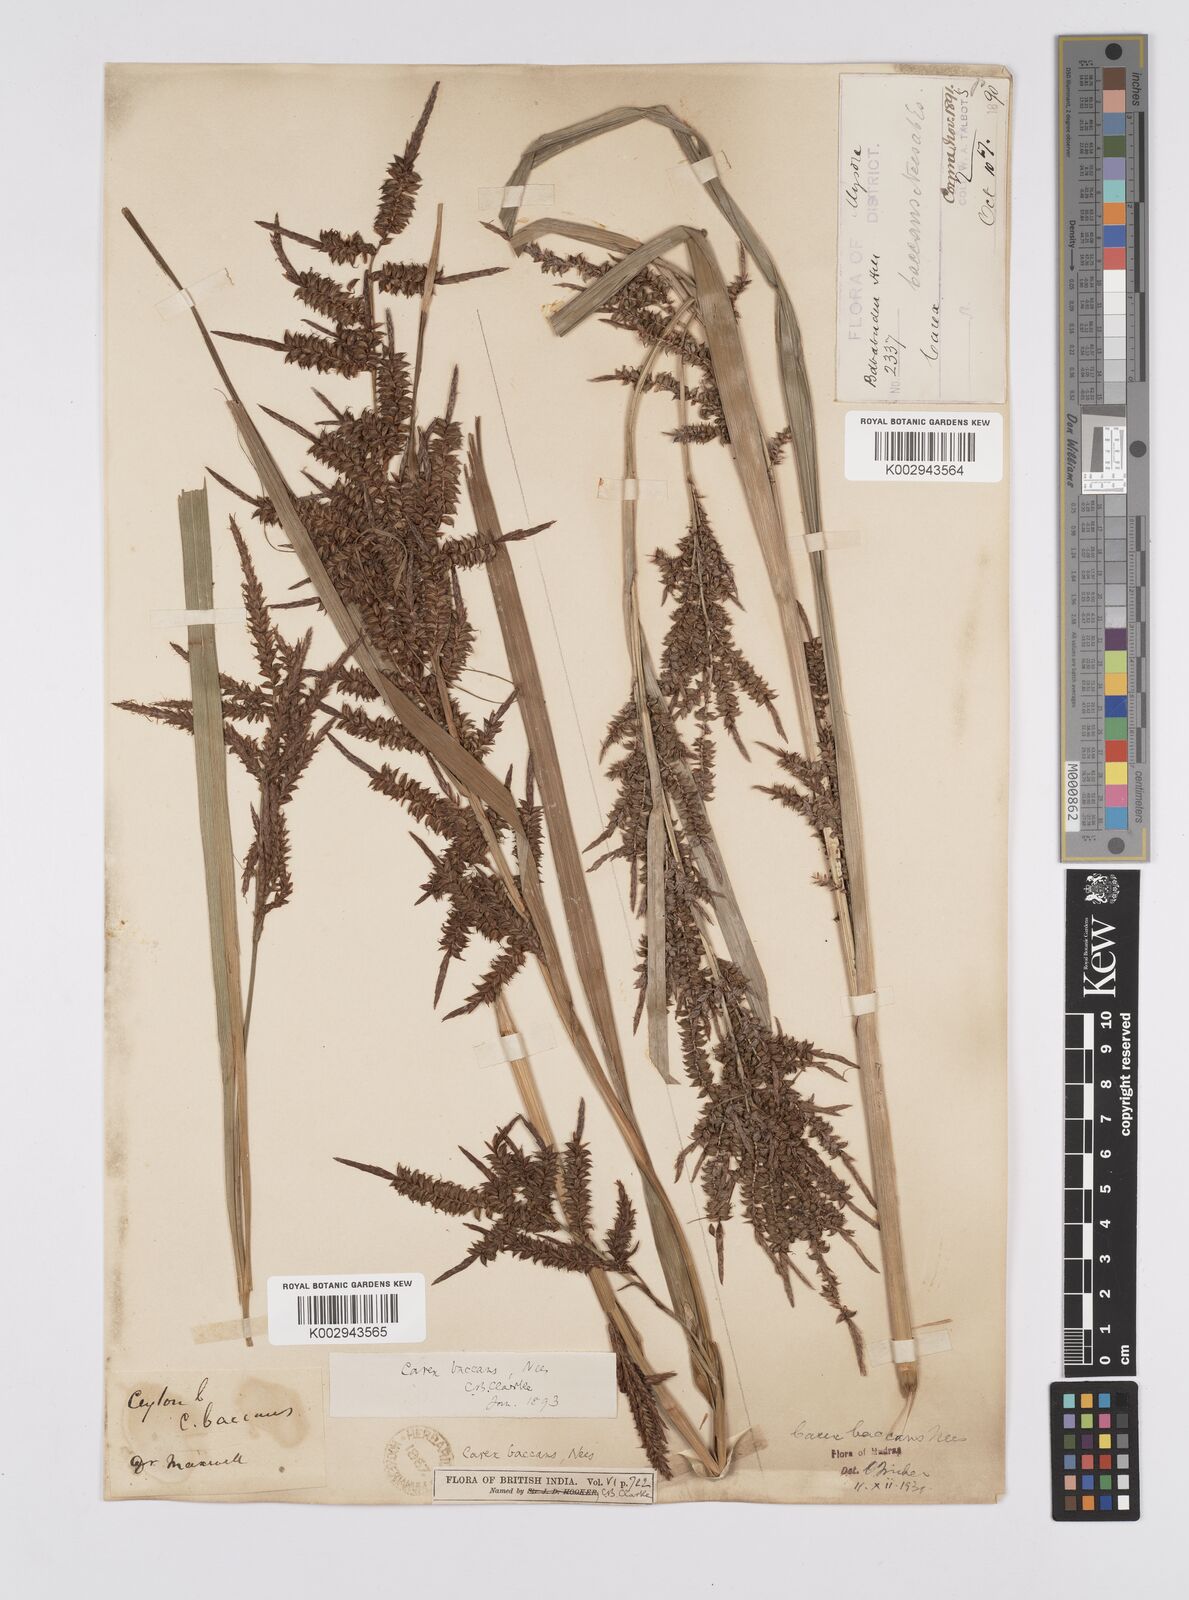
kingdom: Plantae
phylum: Tracheophyta
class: Liliopsida
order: Poales
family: Cyperaceae
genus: Carex
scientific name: Carex baccans
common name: Crimson seeded sedge
